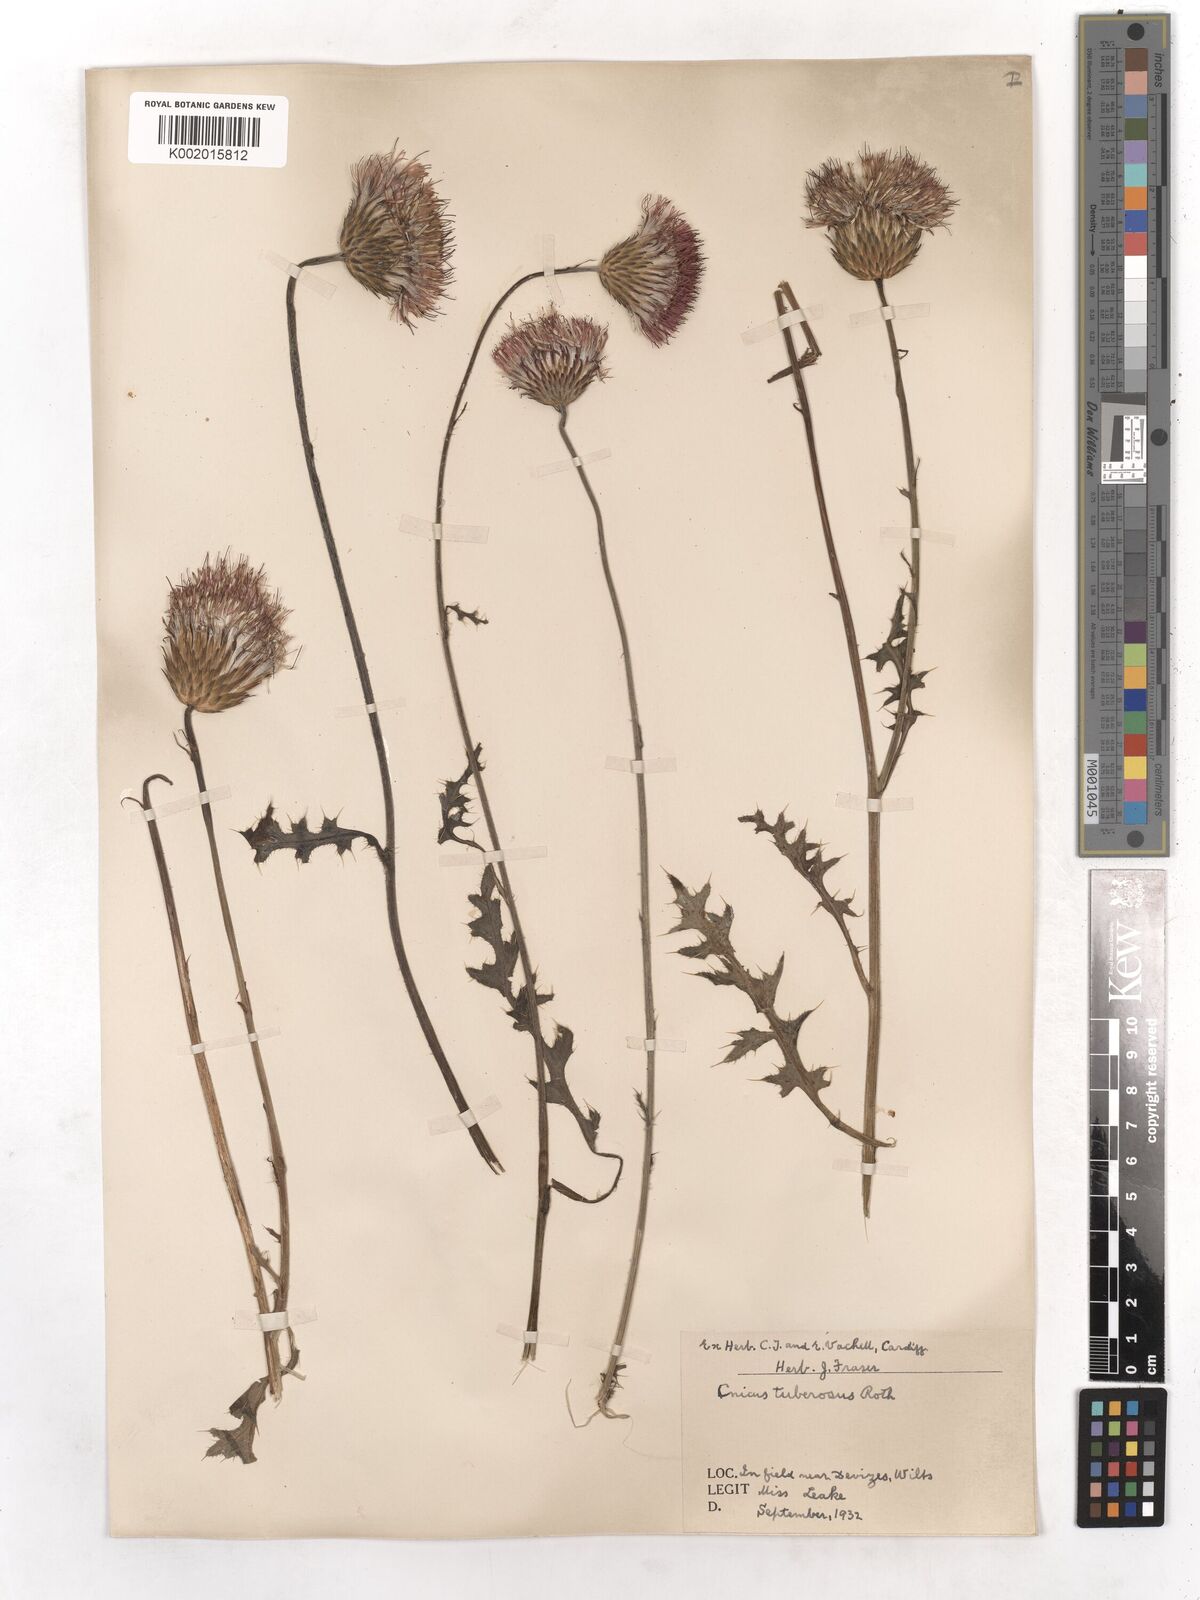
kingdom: Plantae
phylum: Tracheophyta
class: Magnoliopsida
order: Asterales
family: Asteraceae
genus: Cirsium
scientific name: Cirsium
